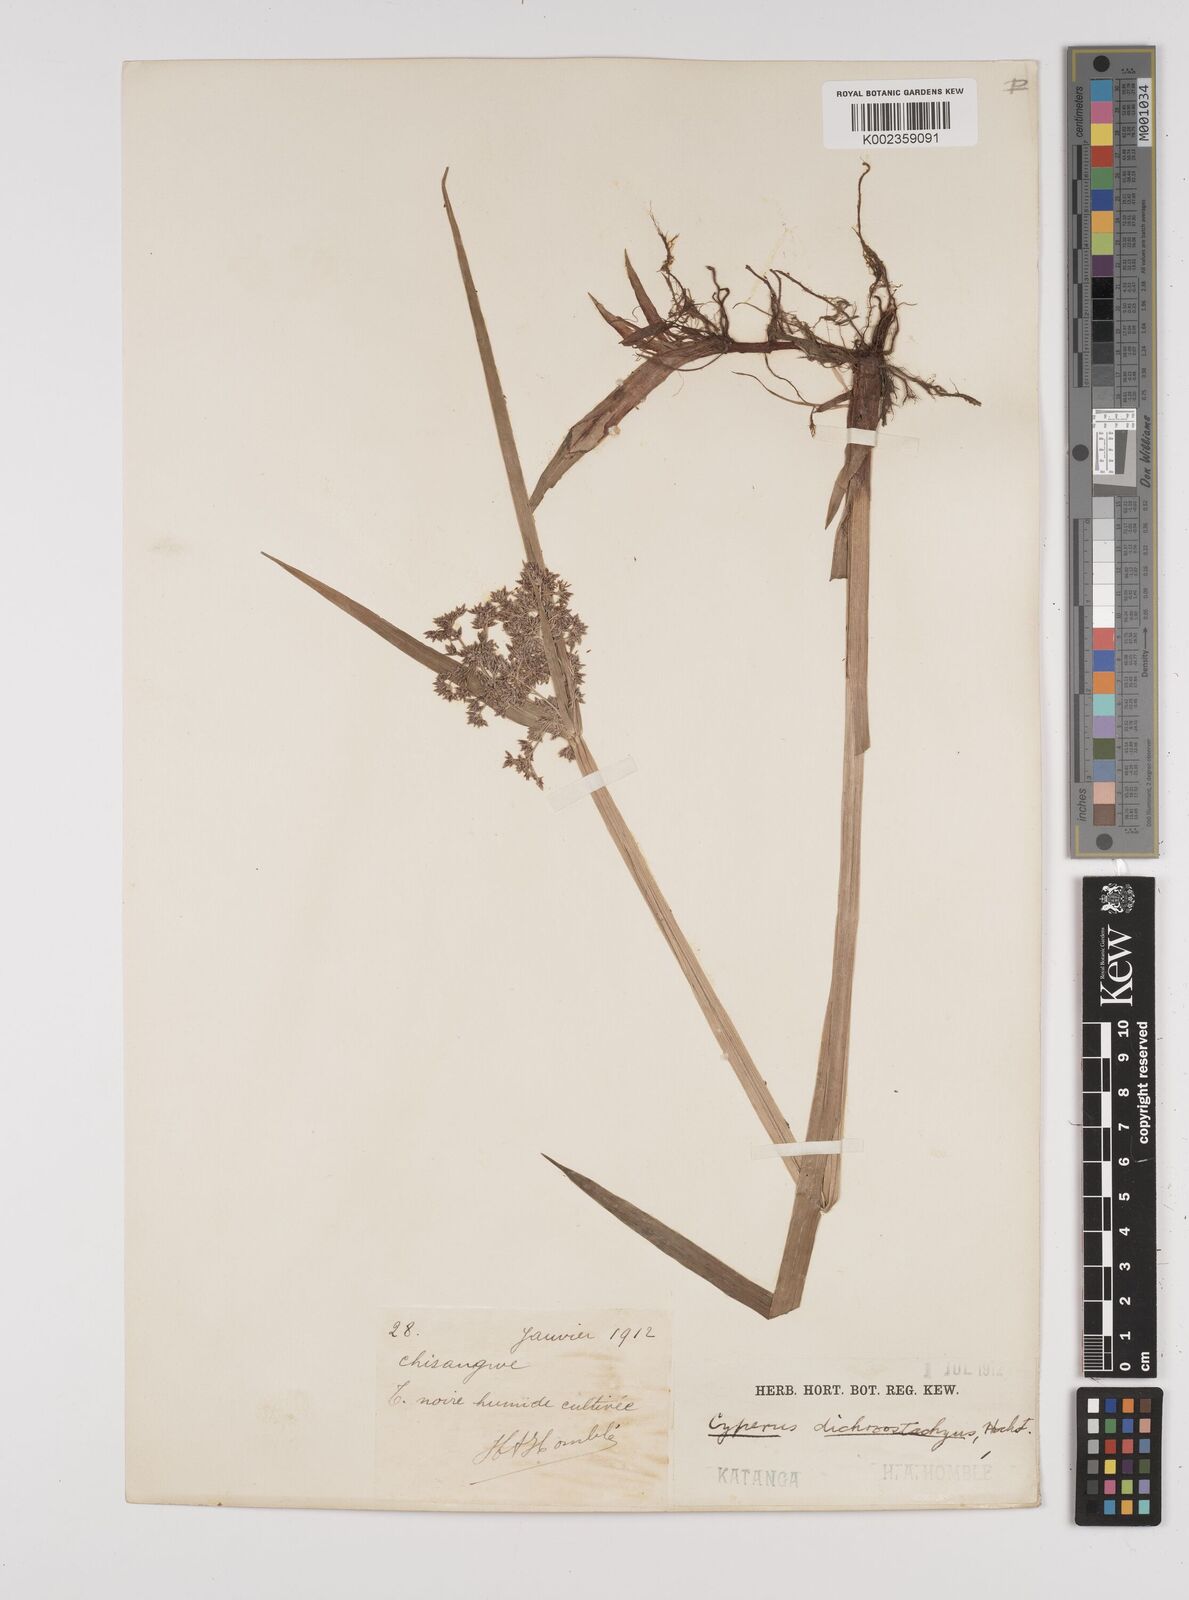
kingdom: Plantae
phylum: Tracheophyta
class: Liliopsida
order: Poales
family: Cyperaceae
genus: Cyperus
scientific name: Cyperus dichrostachyus
